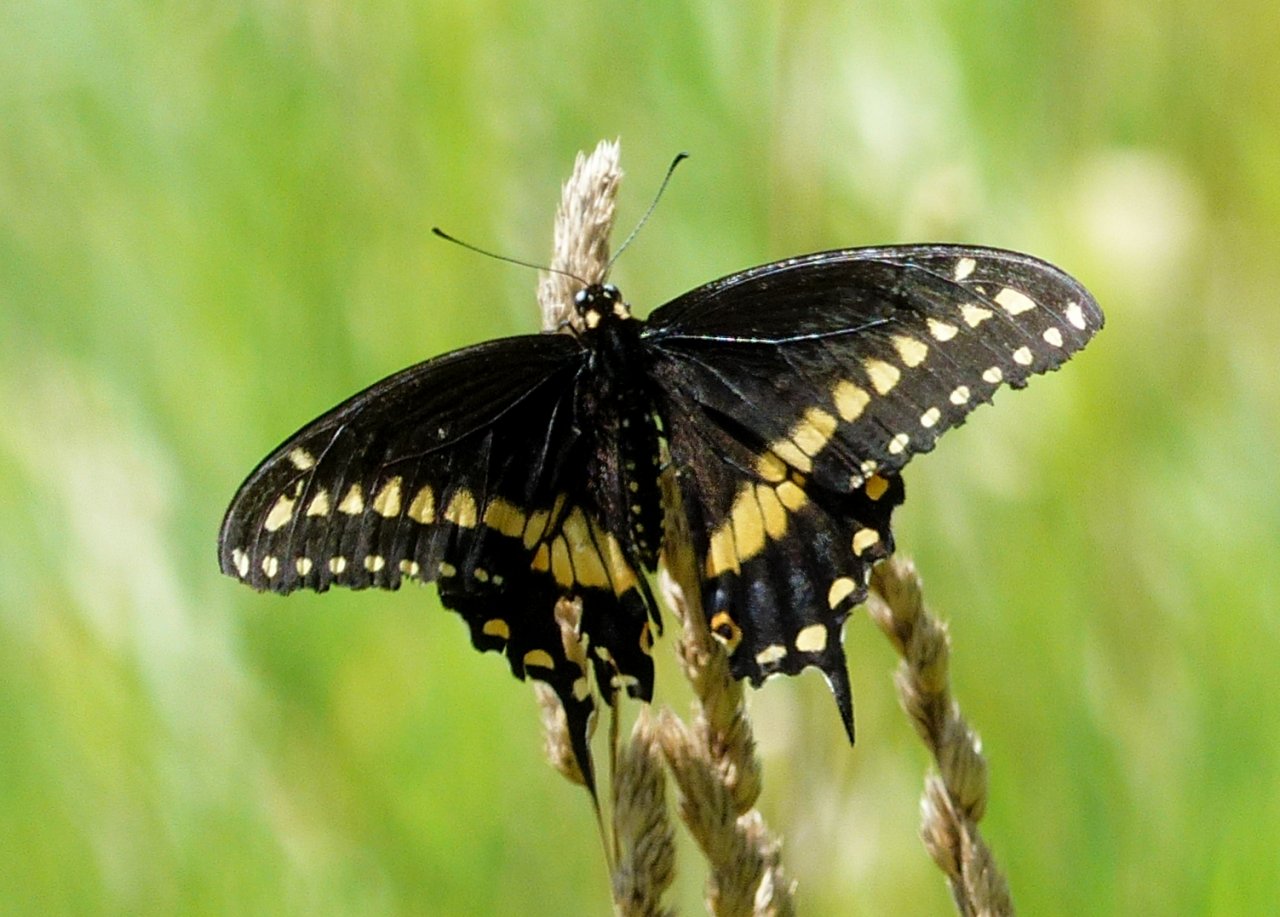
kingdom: Animalia
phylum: Arthropoda
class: Insecta
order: Lepidoptera
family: Papilionidae
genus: Papilio
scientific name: Papilio polyxenes
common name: Black Swallowtail
